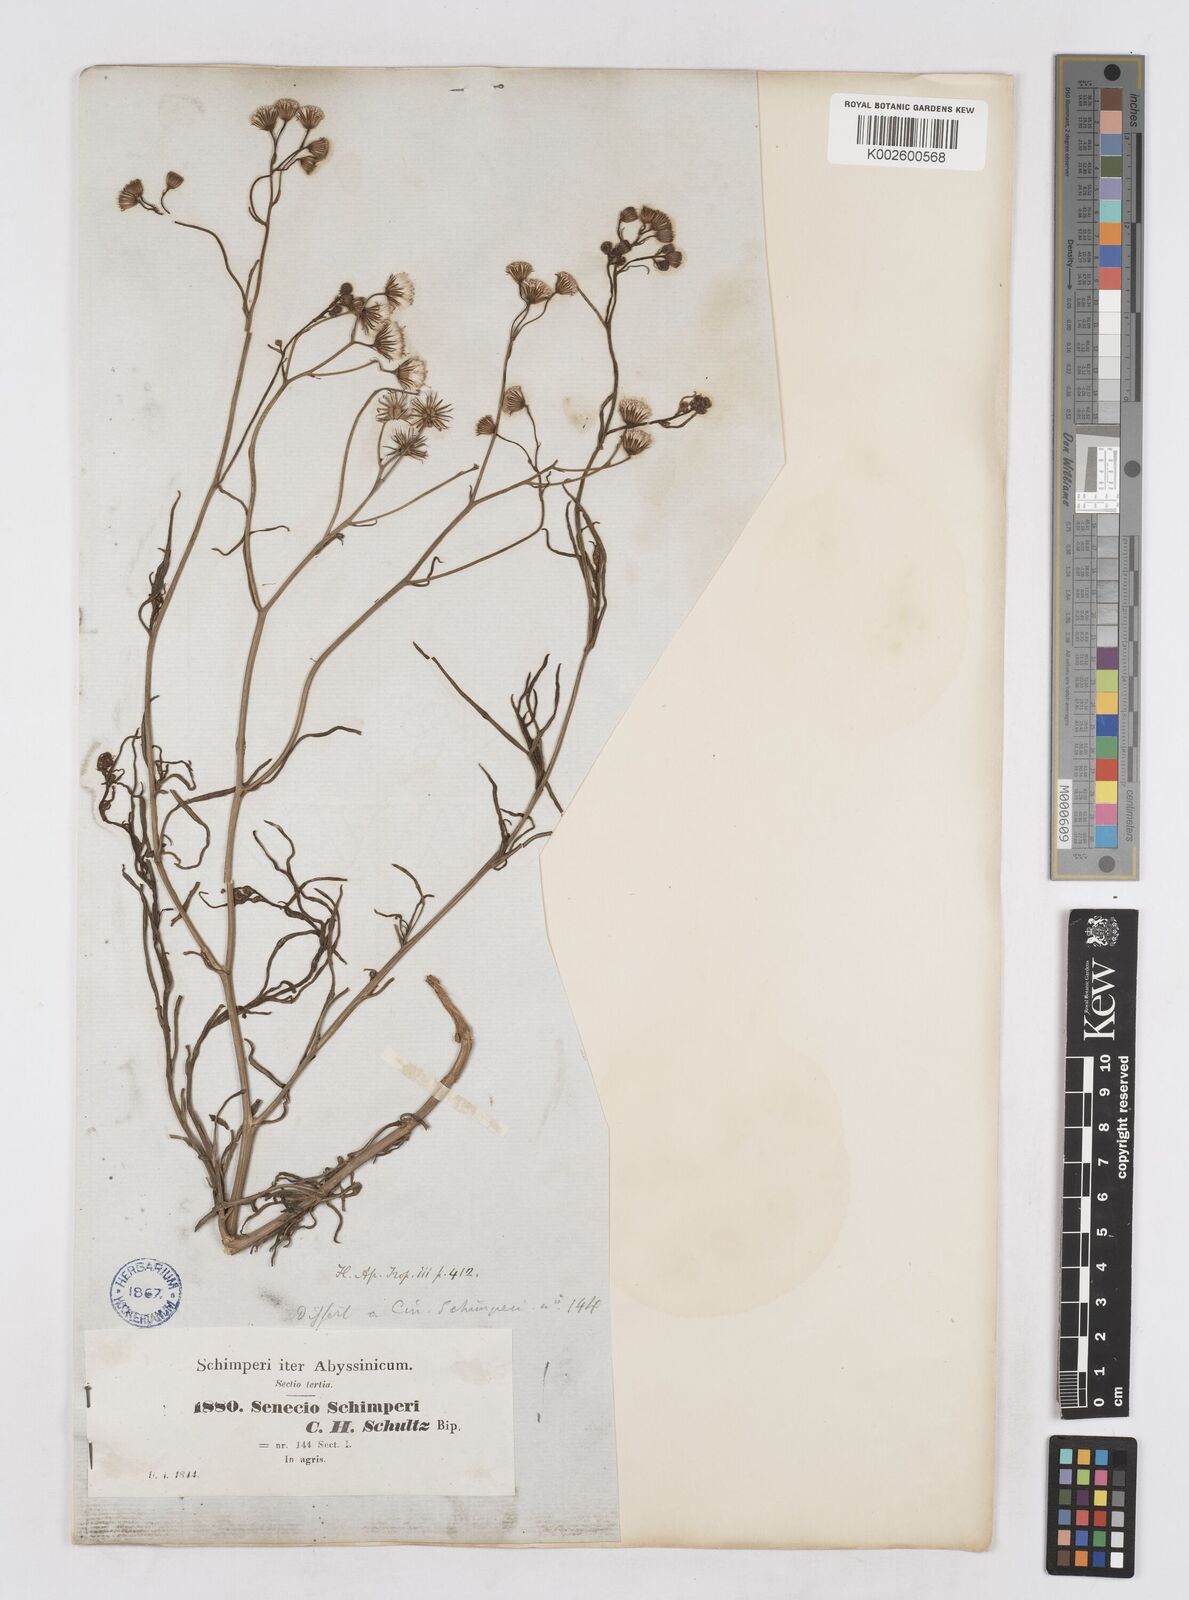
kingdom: Plantae
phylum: Tracheophyta
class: Magnoliopsida
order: Asterales
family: Asteraceae
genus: Senecio
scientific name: Senecio schimperi
